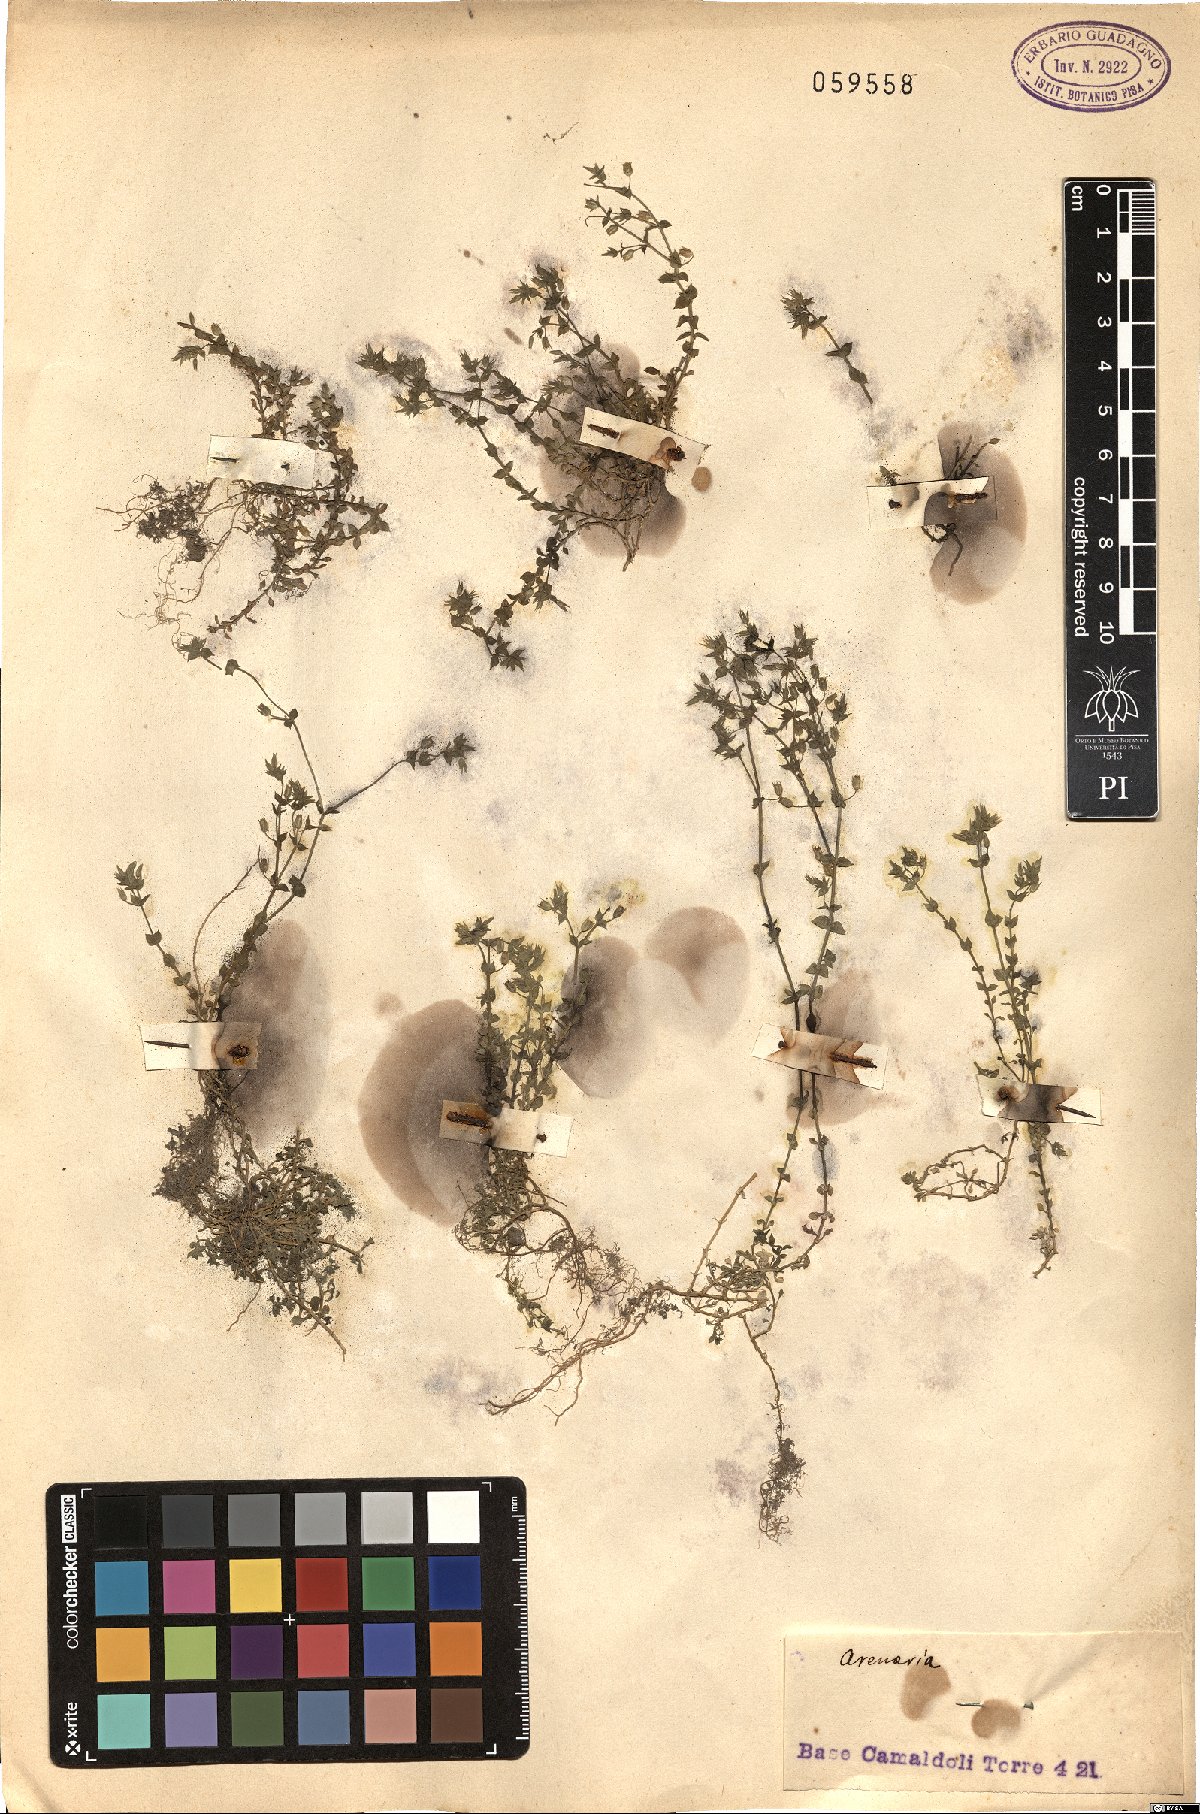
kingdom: Plantae
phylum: Tracheophyta
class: Magnoliopsida
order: Caryophyllales
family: Caryophyllaceae
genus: Arenaria
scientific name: Arenaria
